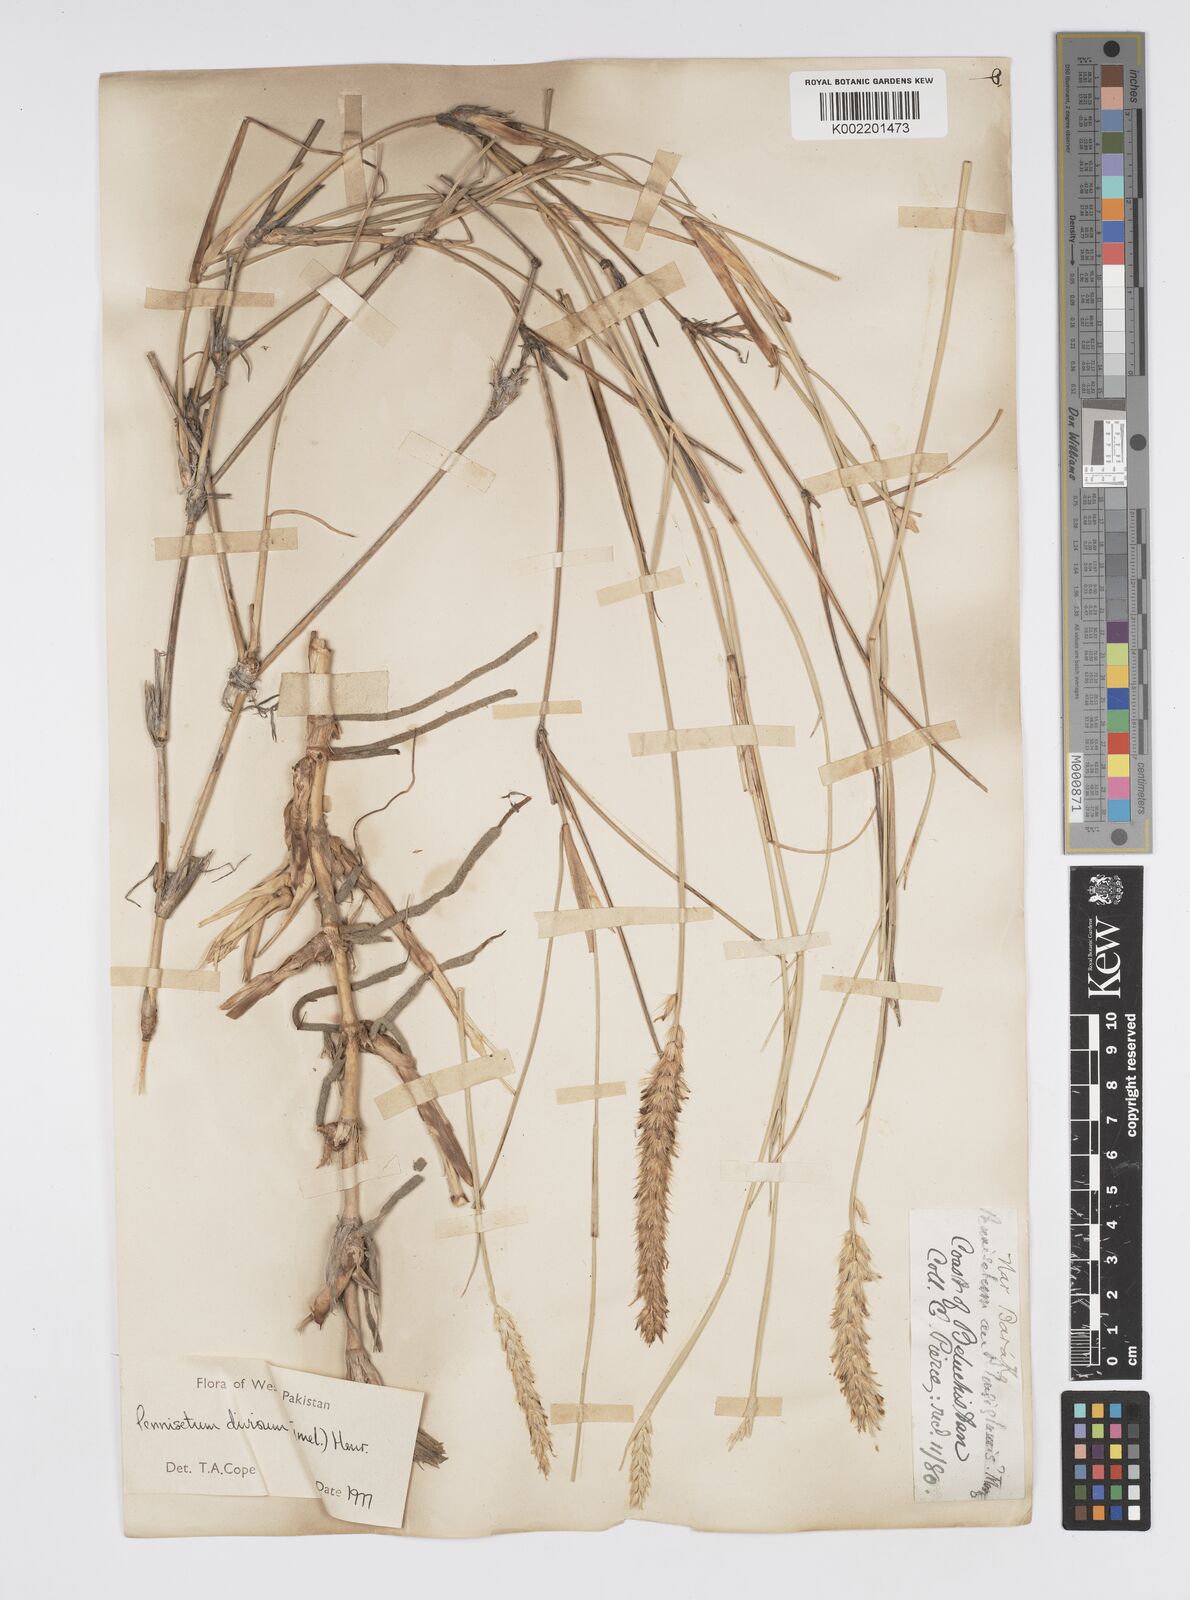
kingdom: Plantae
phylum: Tracheophyta
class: Liliopsida
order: Poales
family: Poaceae
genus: Cenchrus
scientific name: Cenchrus divisus
